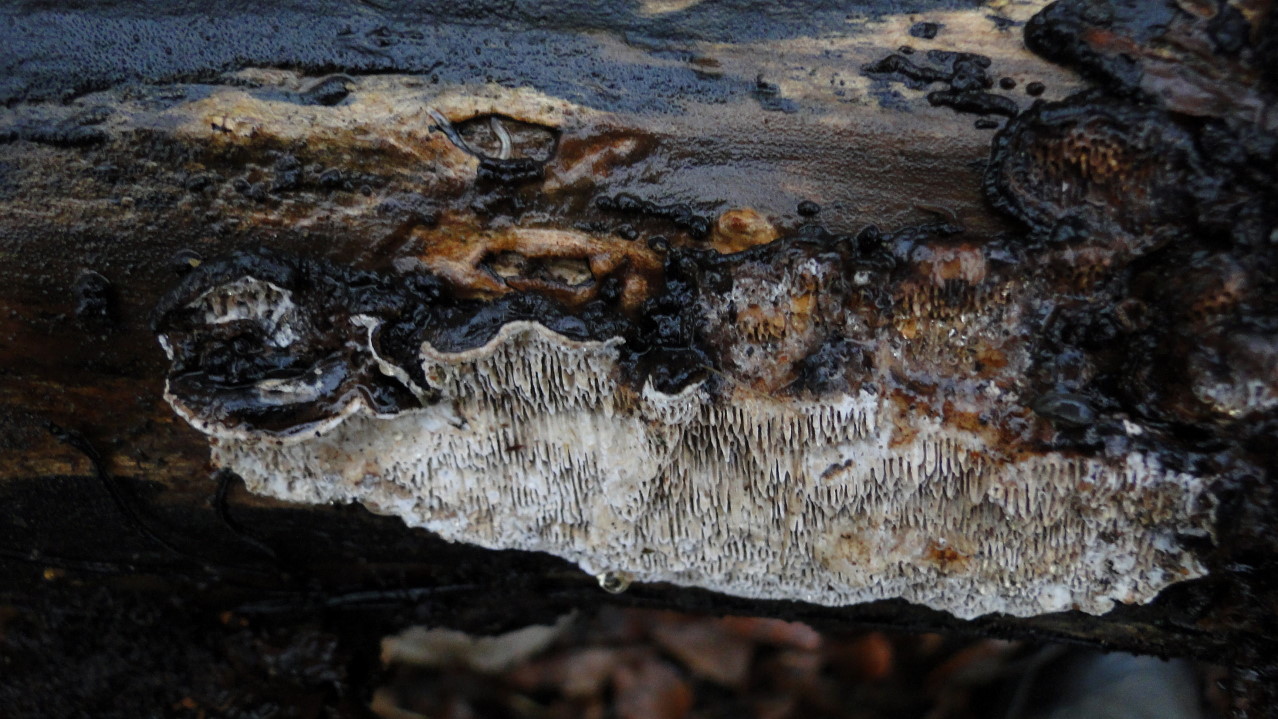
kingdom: Fungi
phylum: Basidiomycota
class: Agaricomycetes
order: Polyporales
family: Polyporaceae
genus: Podofomes
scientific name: Podofomes mollis
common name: blød begporesvamp
